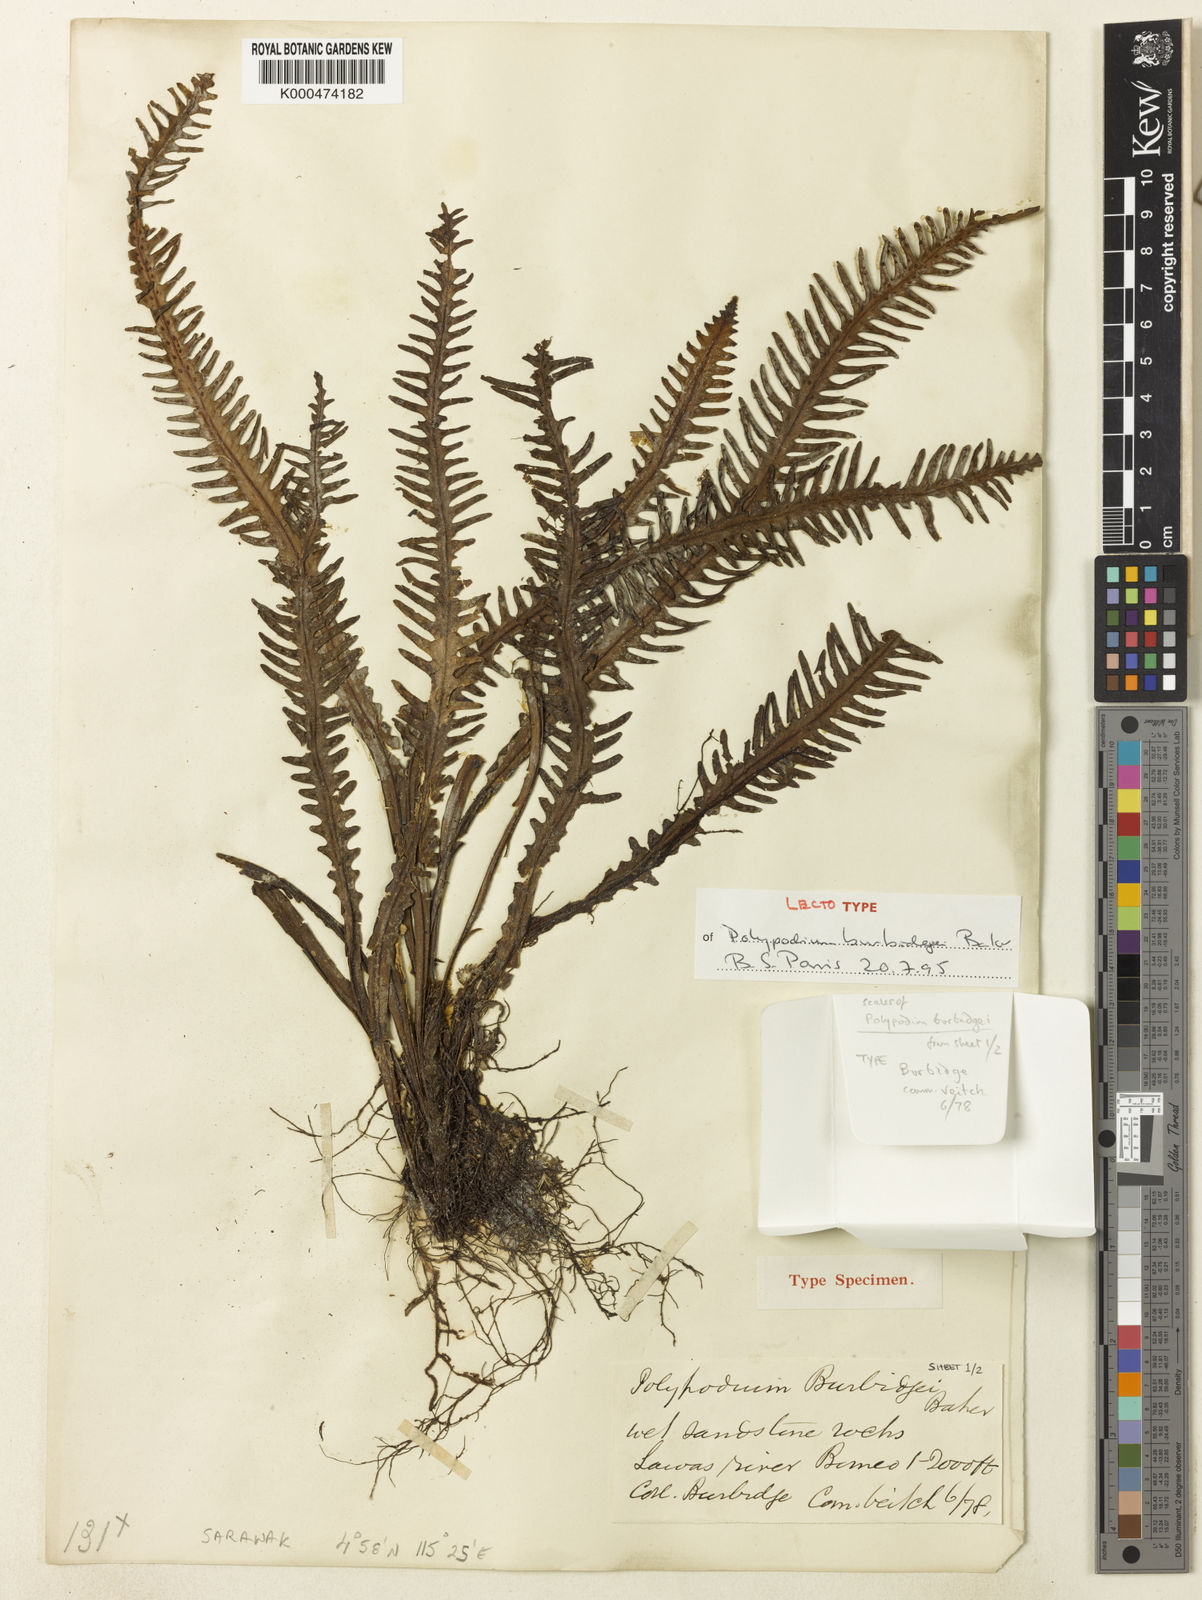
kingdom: Plantae
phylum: Tracheophyta
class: Polypodiopsida
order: Polypodiales
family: Polypodiaceae
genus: Prosaptia
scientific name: Prosaptia burbidgei
